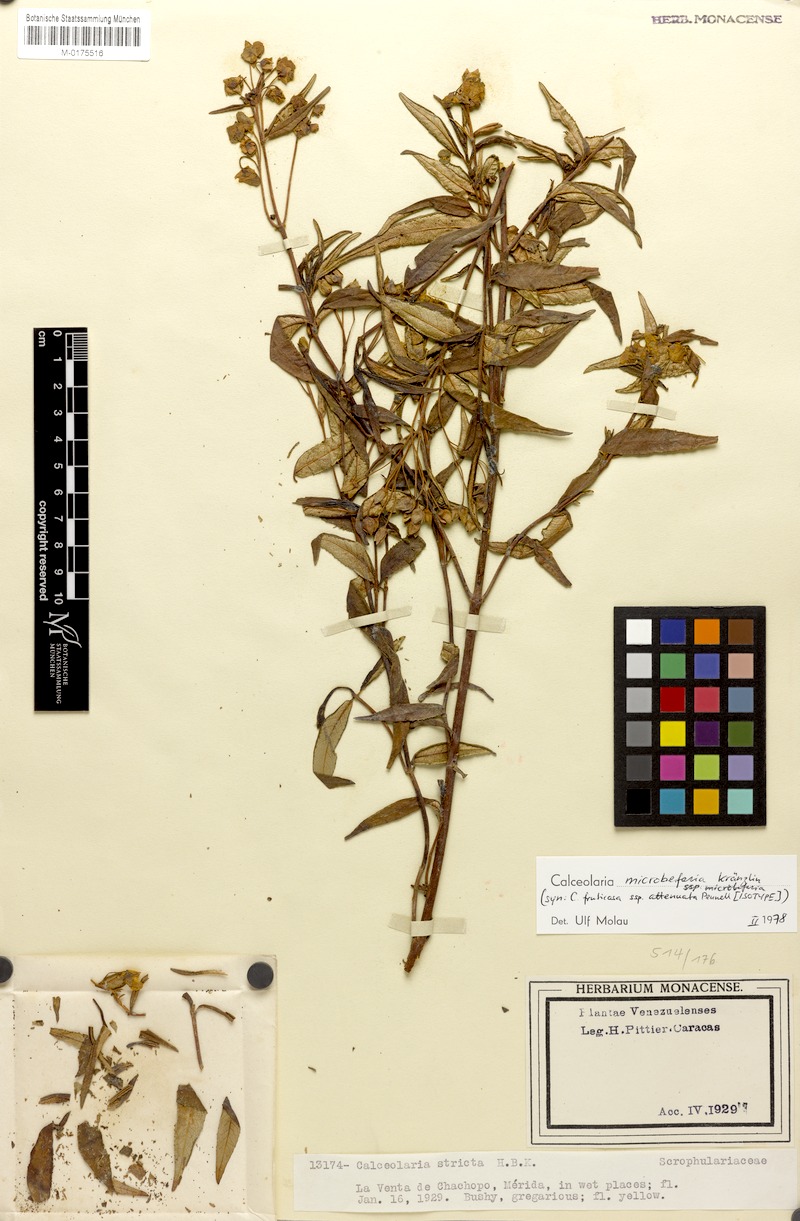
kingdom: Plantae
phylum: Tracheophyta
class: Magnoliopsida
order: Lamiales
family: Calceolariaceae
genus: Calceolaria
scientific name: Calceolaria microbefaria
